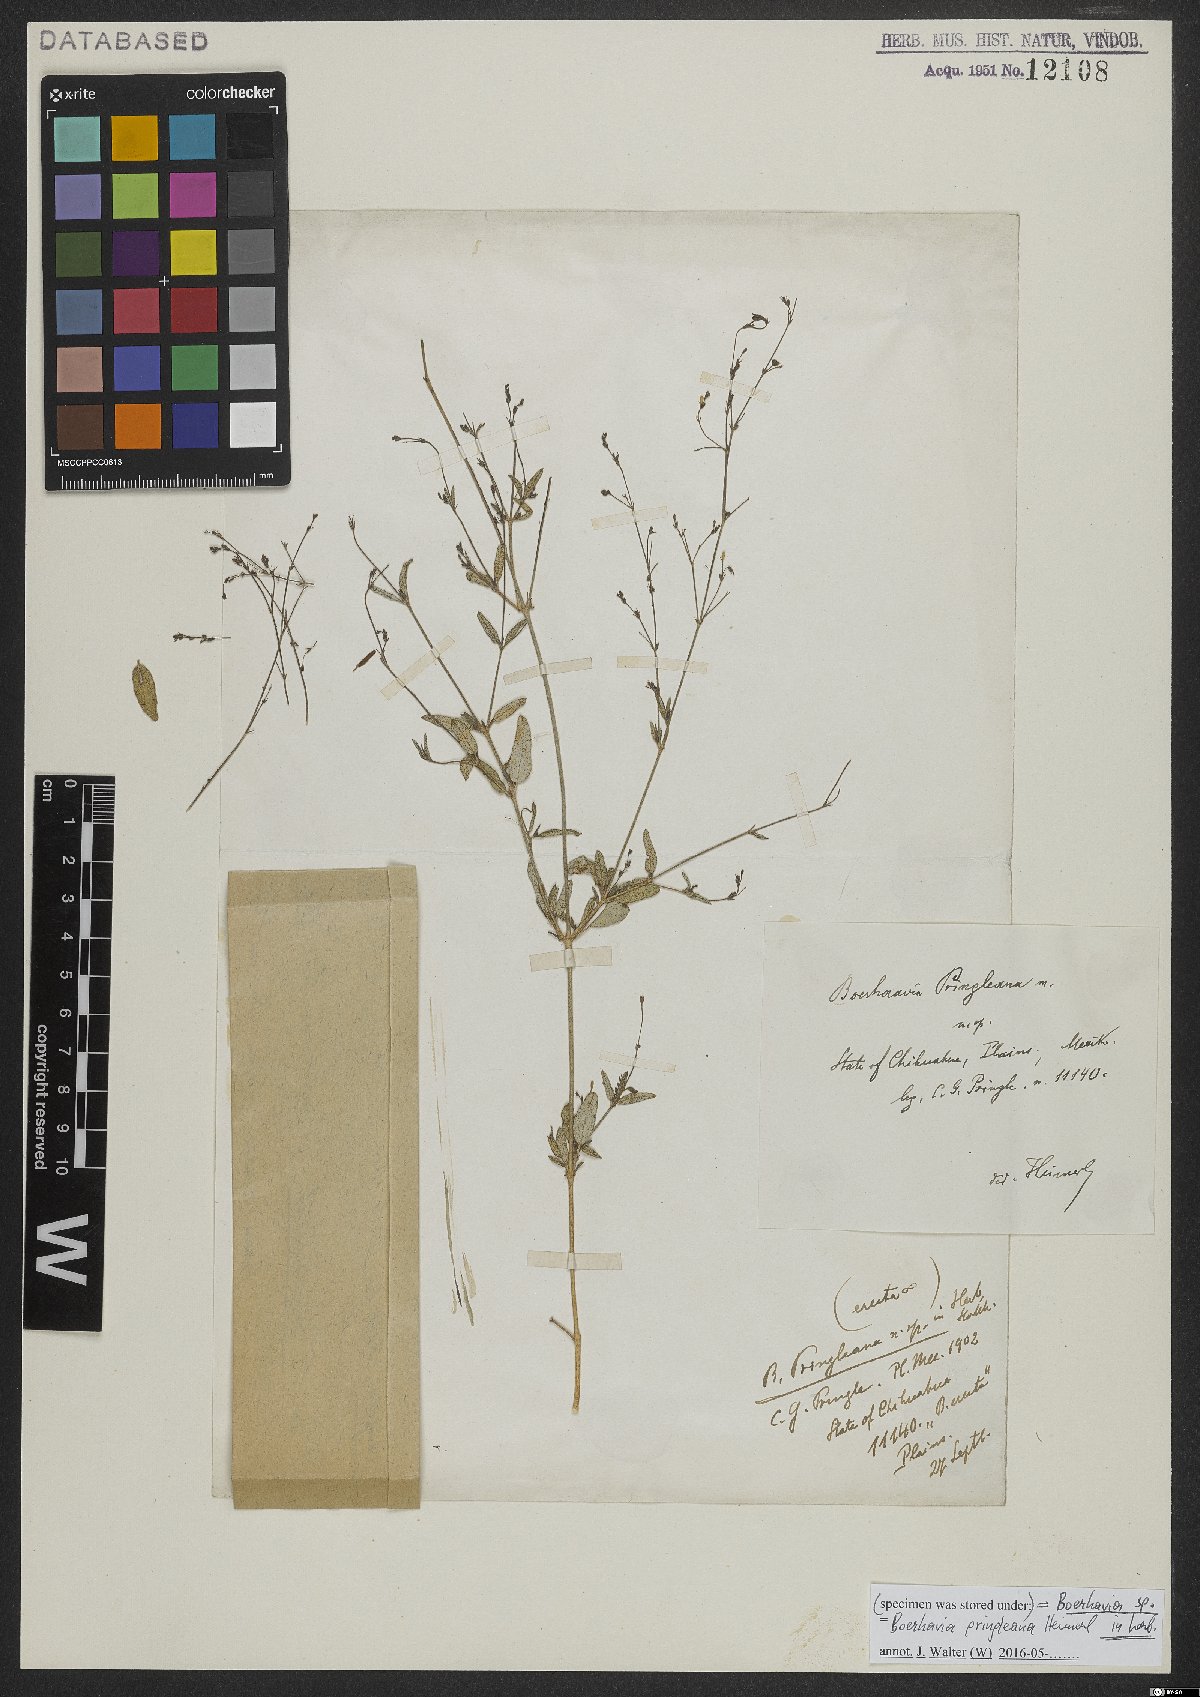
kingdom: Plantae
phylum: Tracheophyta
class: Magnoliopsida
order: Caryophyllales
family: Nyctaginaceae
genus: Boerhavia
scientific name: Boerhavia
